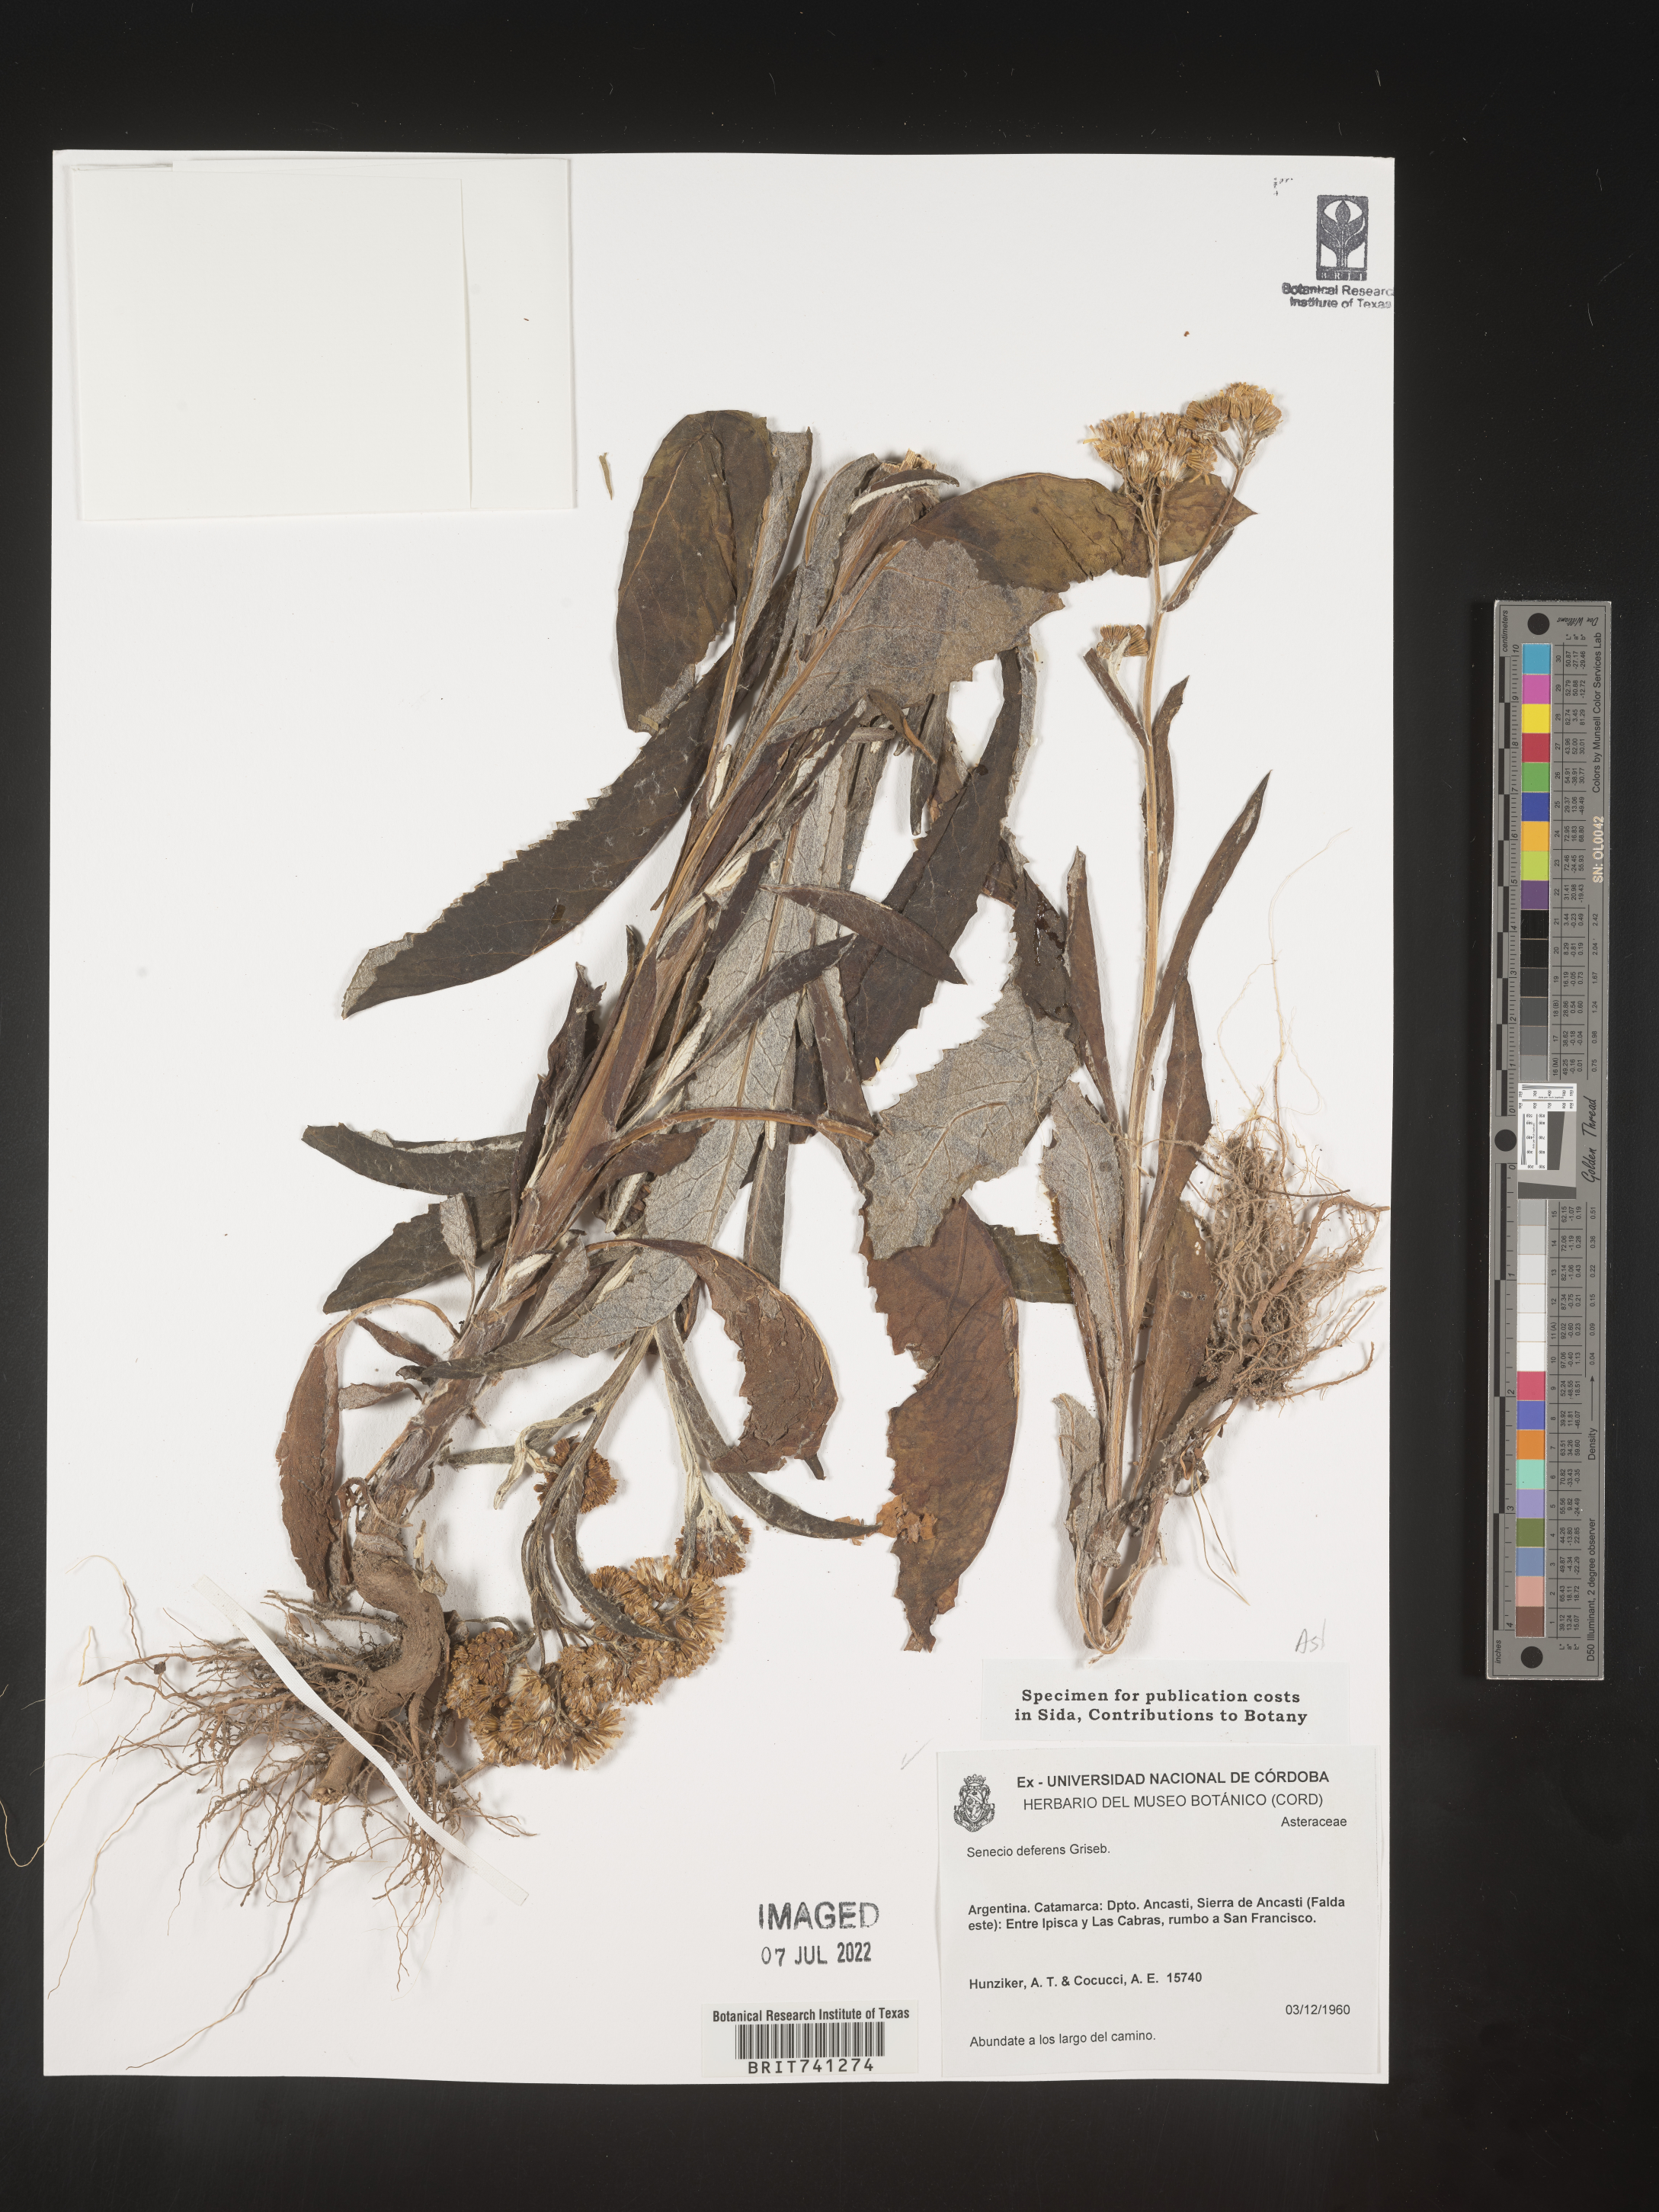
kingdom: Plantae
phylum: Tracheophyta
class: Magnoliopsida
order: Asterales
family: Asteraceae
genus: Senecio
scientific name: Senecio
